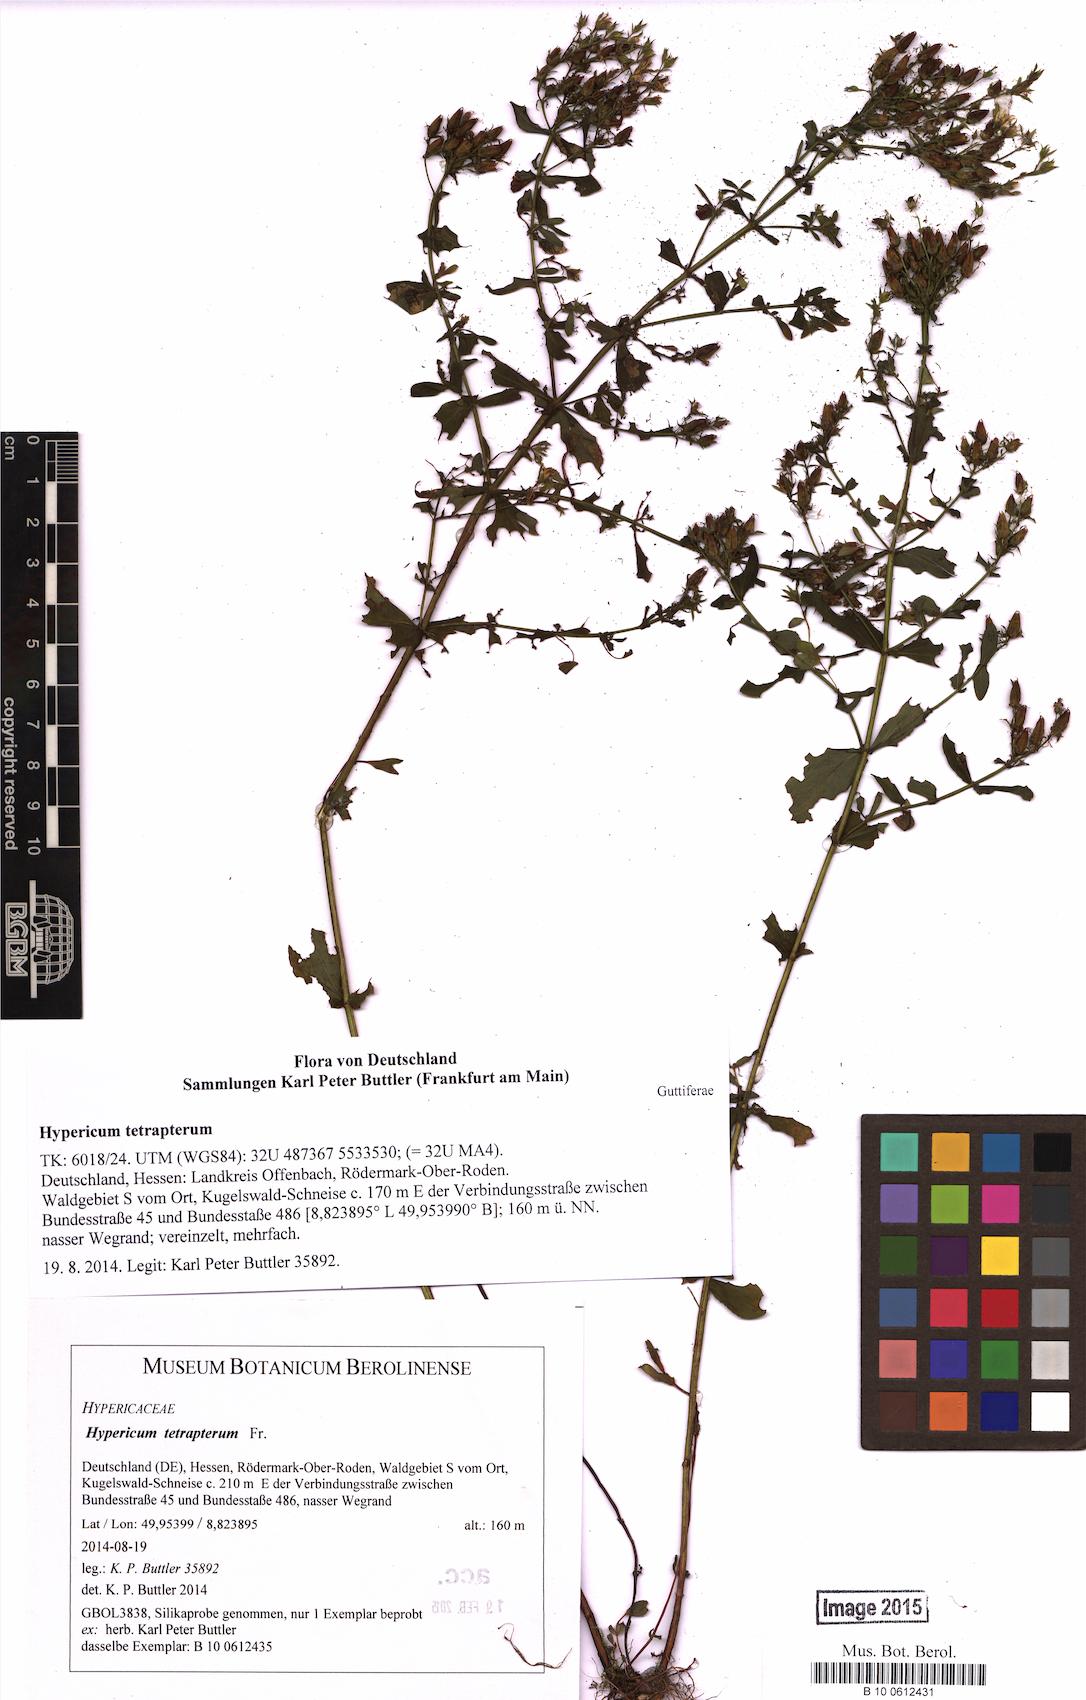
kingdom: Plantae
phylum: Tracheophyta
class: Magnoliopsida
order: Malpighiales
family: Hypericaceae
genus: Hypericum
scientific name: Hypericum tetrapterum
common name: Square-stalked st. john's-wort
